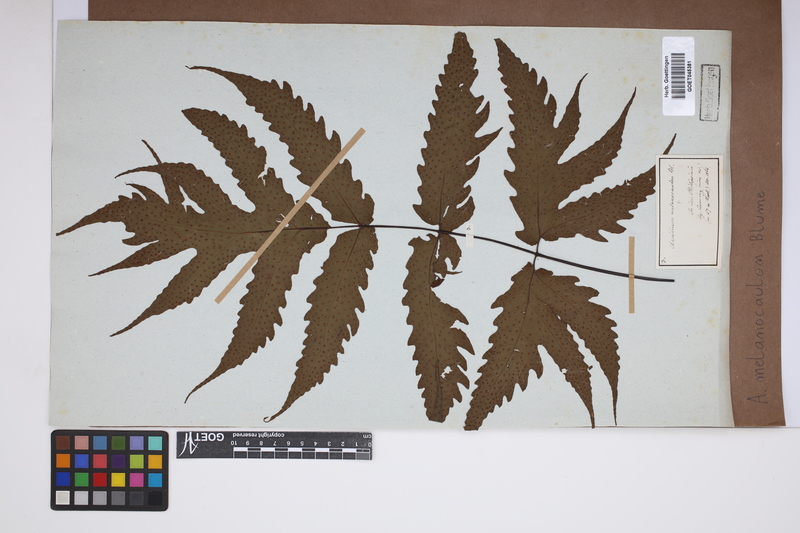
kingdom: Plantae
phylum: Tracheophyta
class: Polypodiopsida
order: Polypodiales
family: Tectariaceae
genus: Tectaria
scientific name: Tectaria melanocaulos
